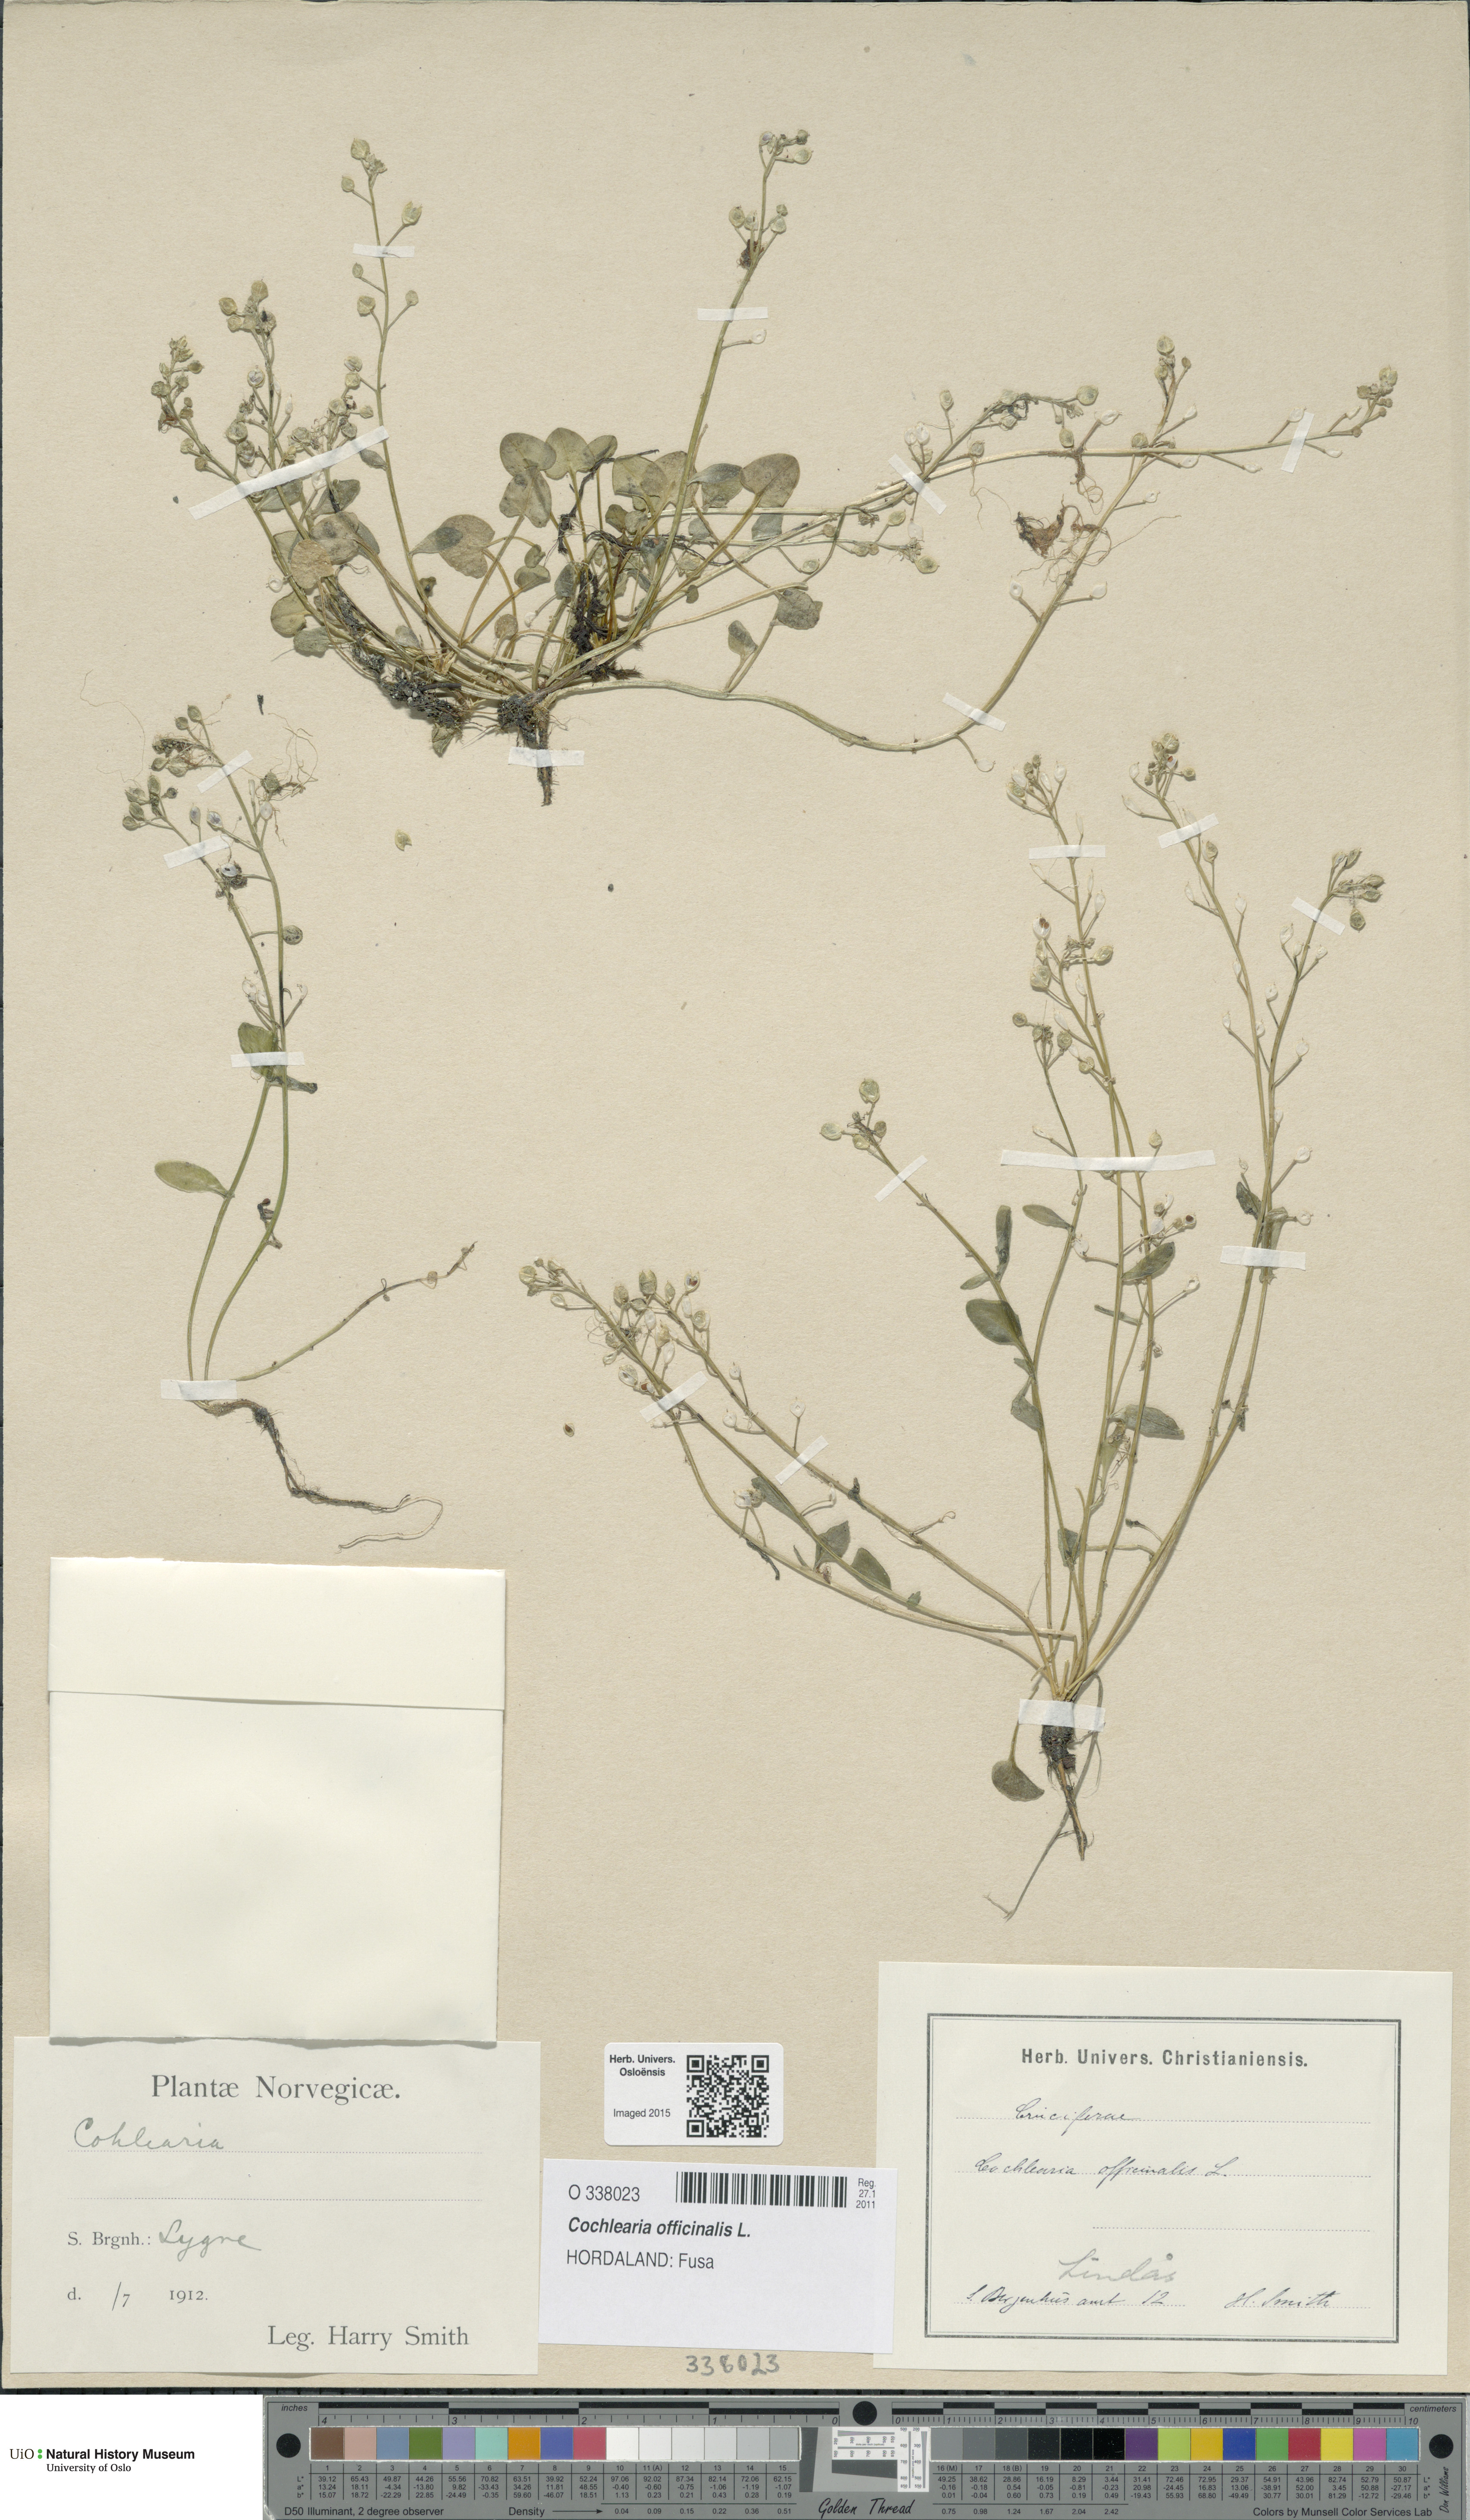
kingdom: Plantae
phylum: Tracheophyta
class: Magnoliopsida
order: Brassicales
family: Brassicaceae
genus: Cochlearia
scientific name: Cochlearia officinalis
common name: Scurvy-grass
